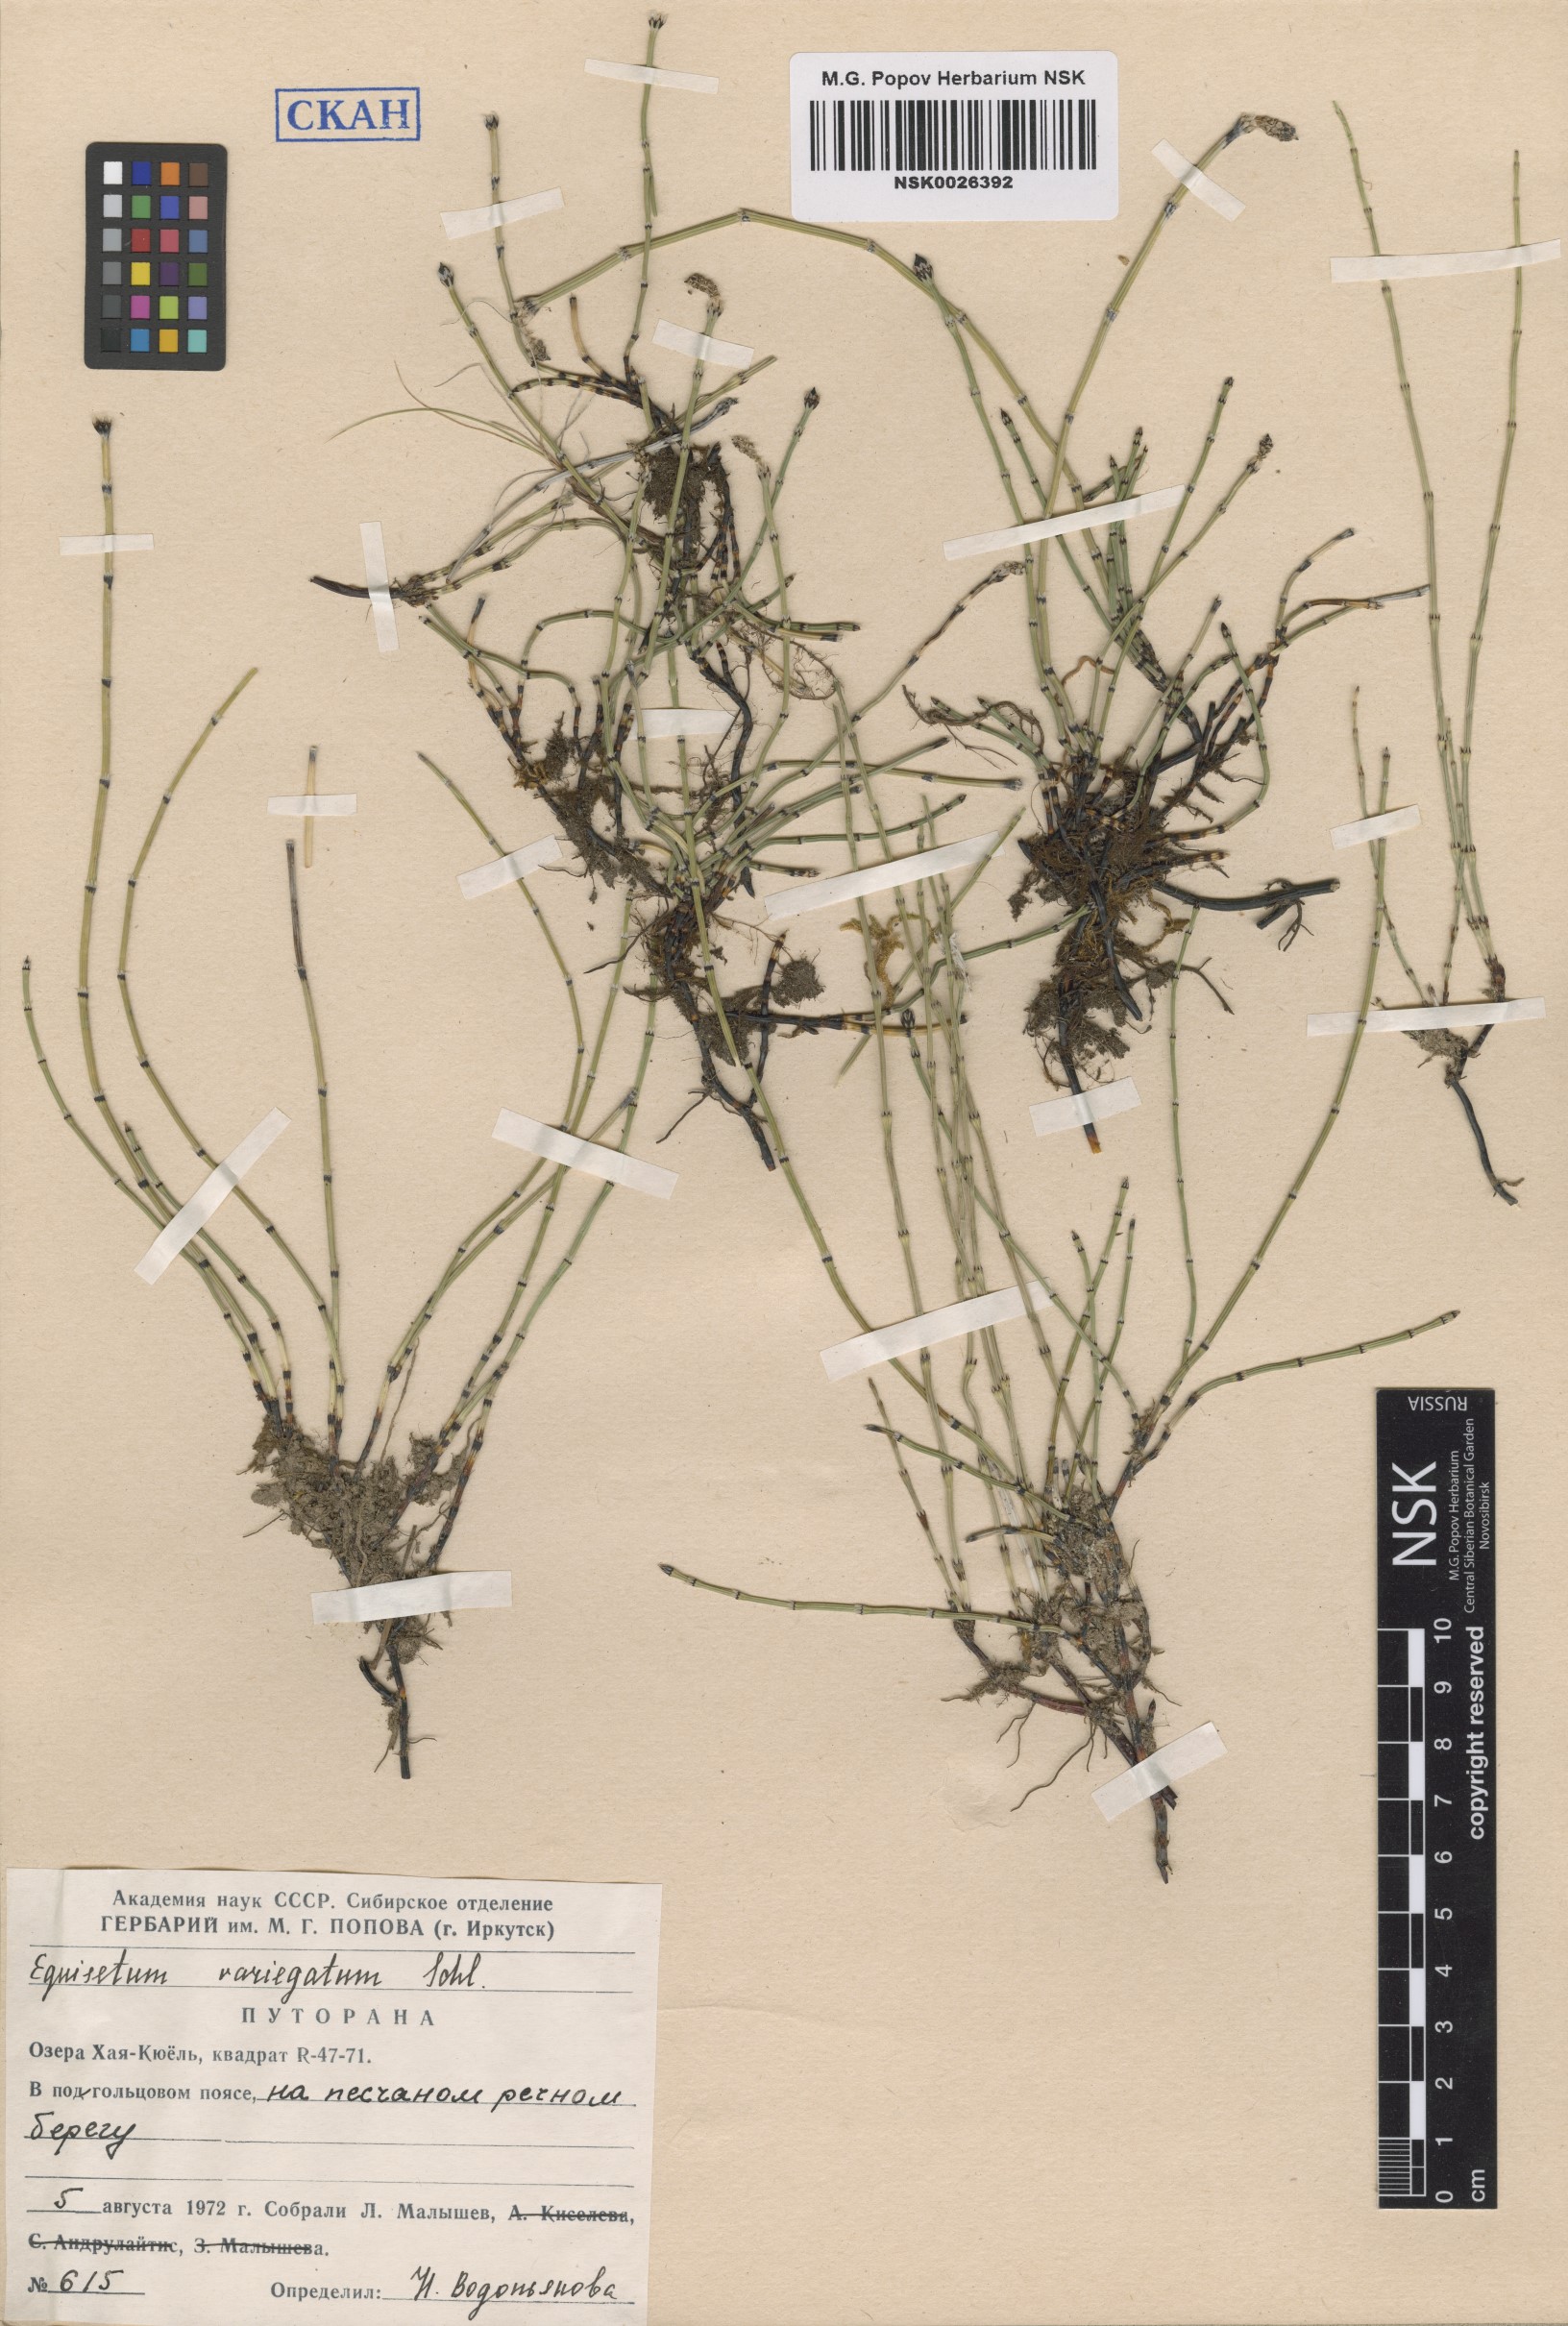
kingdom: Plantae
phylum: Tracheophyta
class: Polypodiopsida
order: Equisetales
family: Equisetaceae
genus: Equisetum
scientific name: Equisetum variegatum
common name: Variegated horsetail
